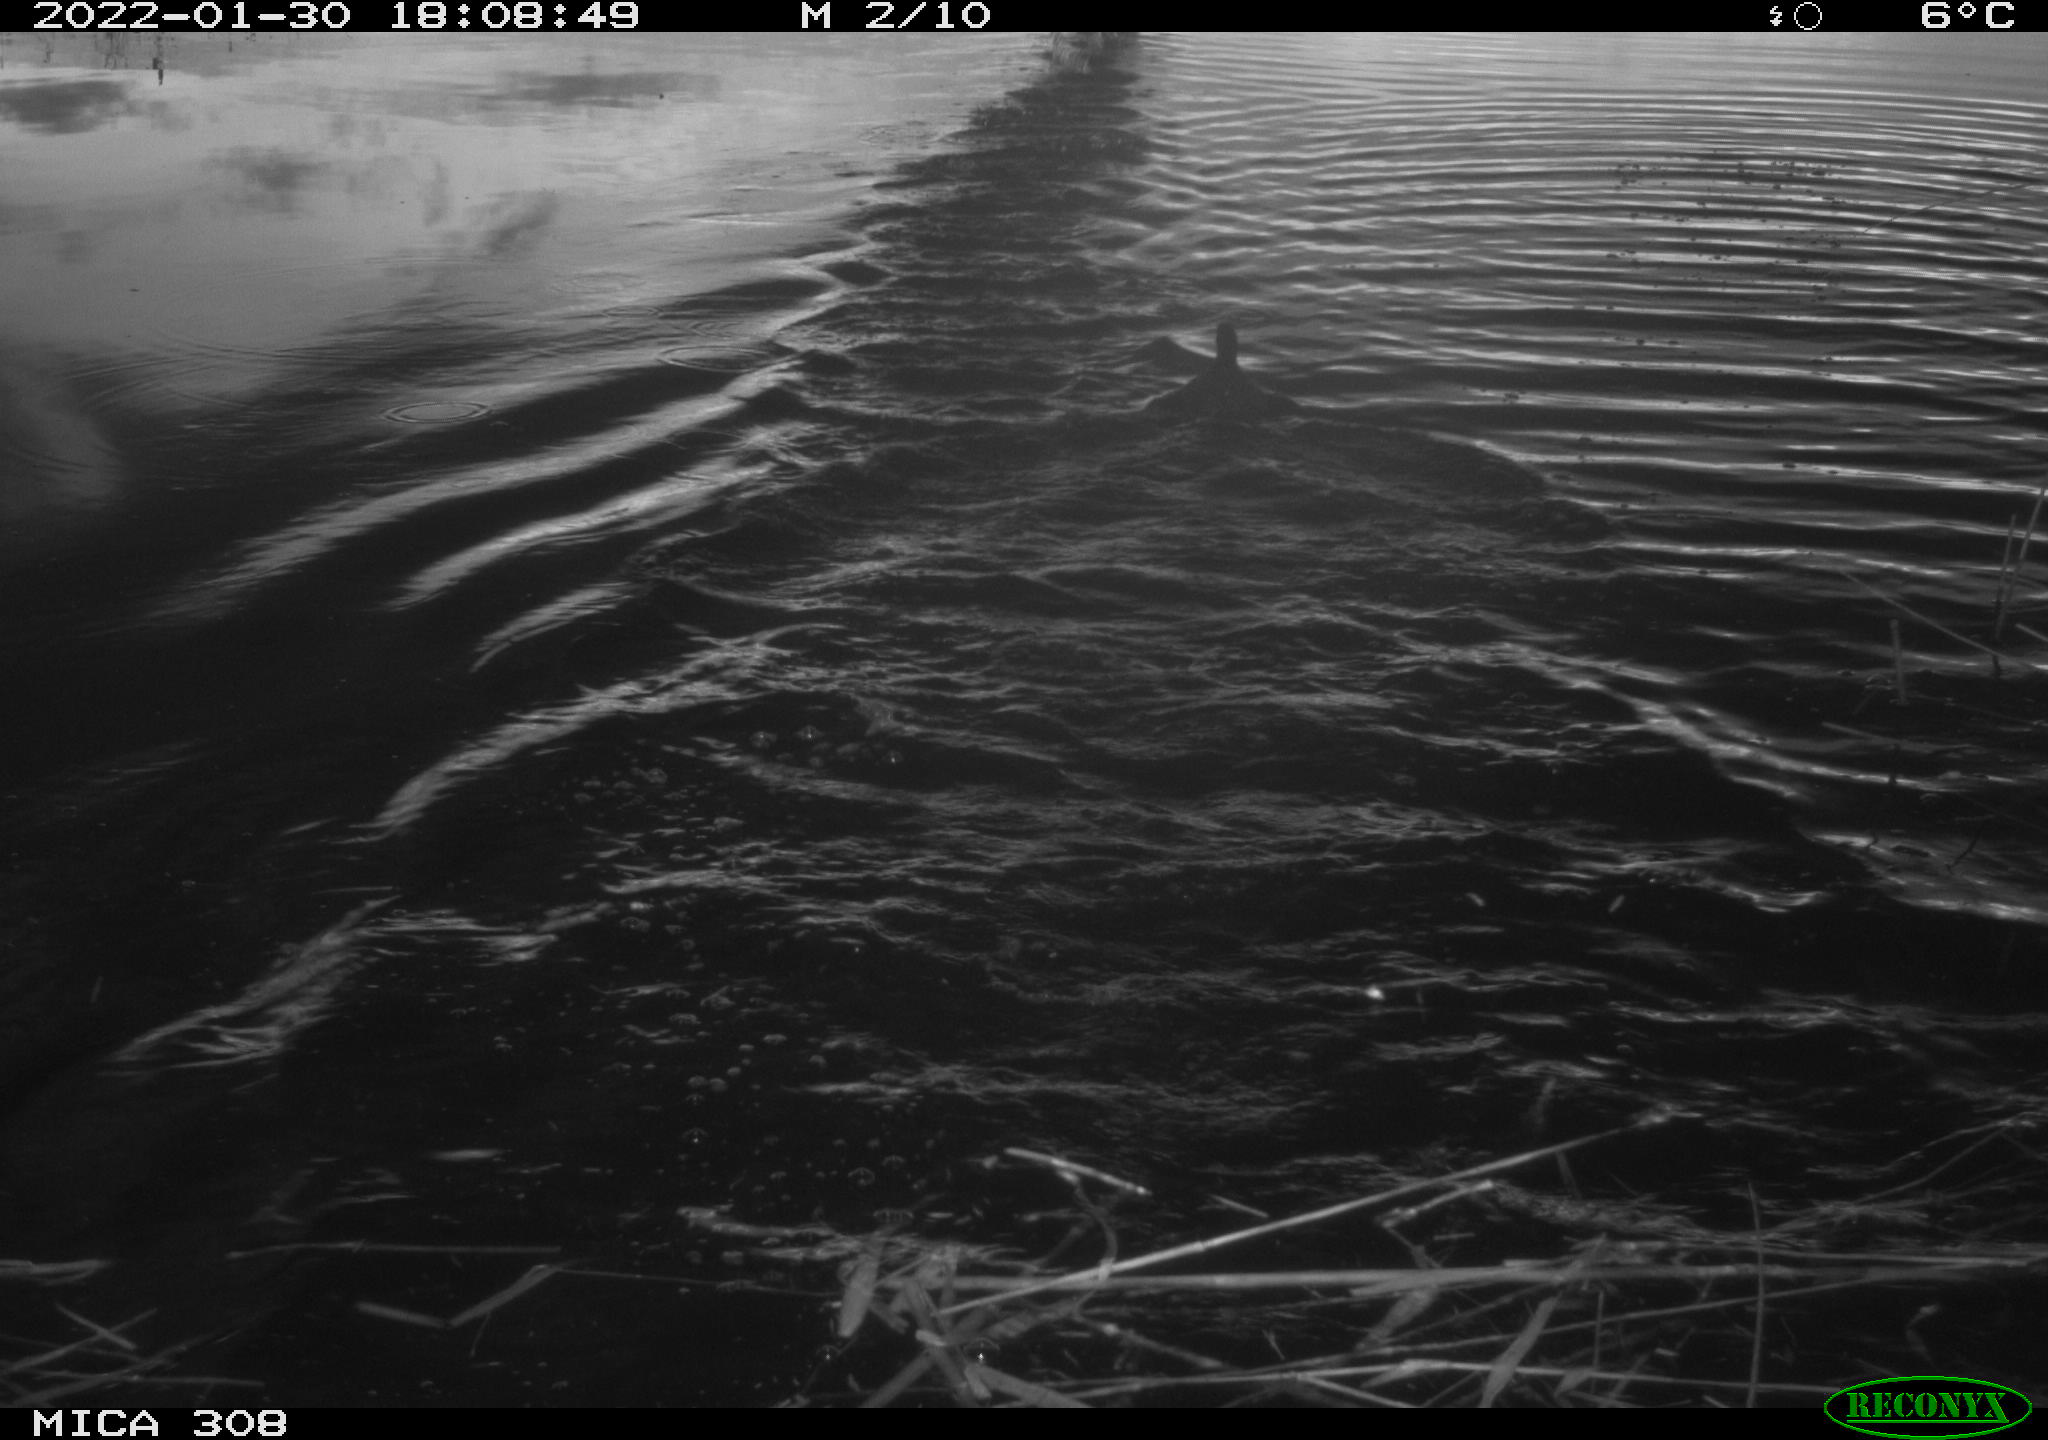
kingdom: Animalia
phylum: Chordata
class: Aves
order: Gruiformes
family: Rallidae
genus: Gallinula
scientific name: Gallinula chloropus
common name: Common moorhen
